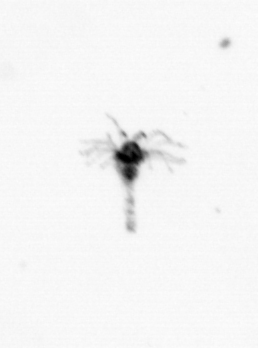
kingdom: Animalia
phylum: Cnidaria
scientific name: Cnidaria
